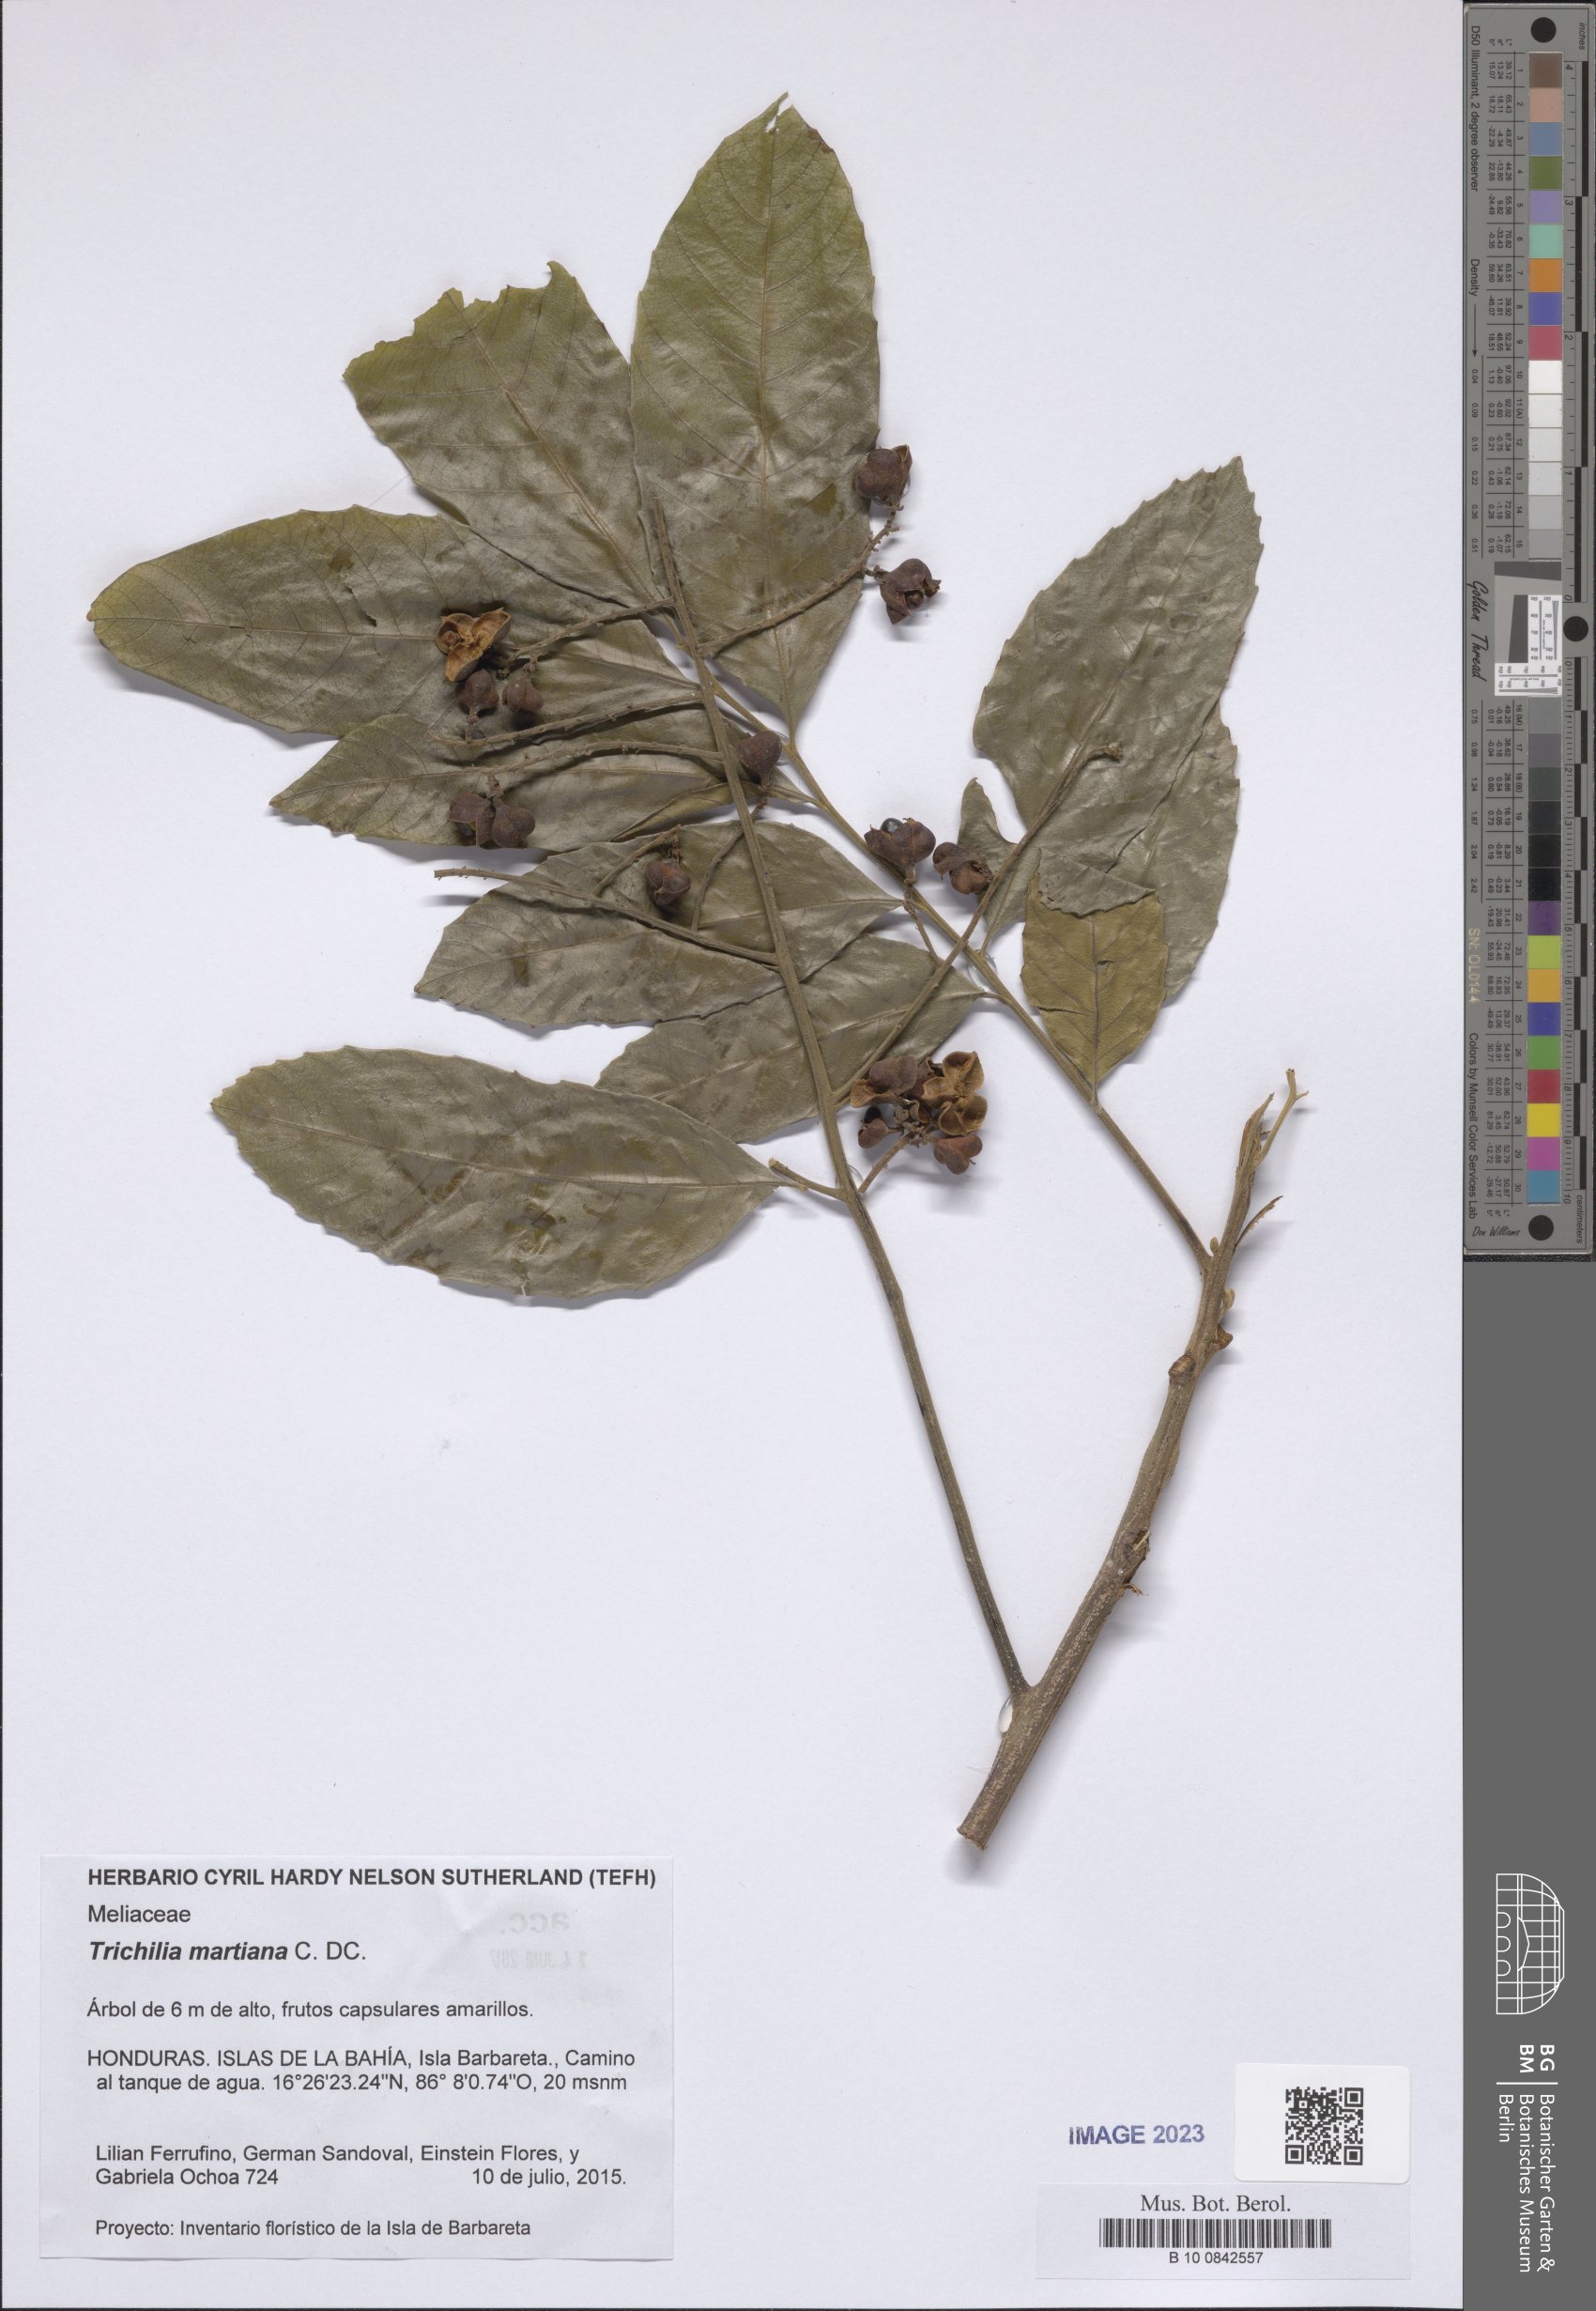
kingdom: Plantae
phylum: Tracheophyta
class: Magnoliopsida
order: Sapindales
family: Meliaceae
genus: Trichilia
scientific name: Trichilia martiana
